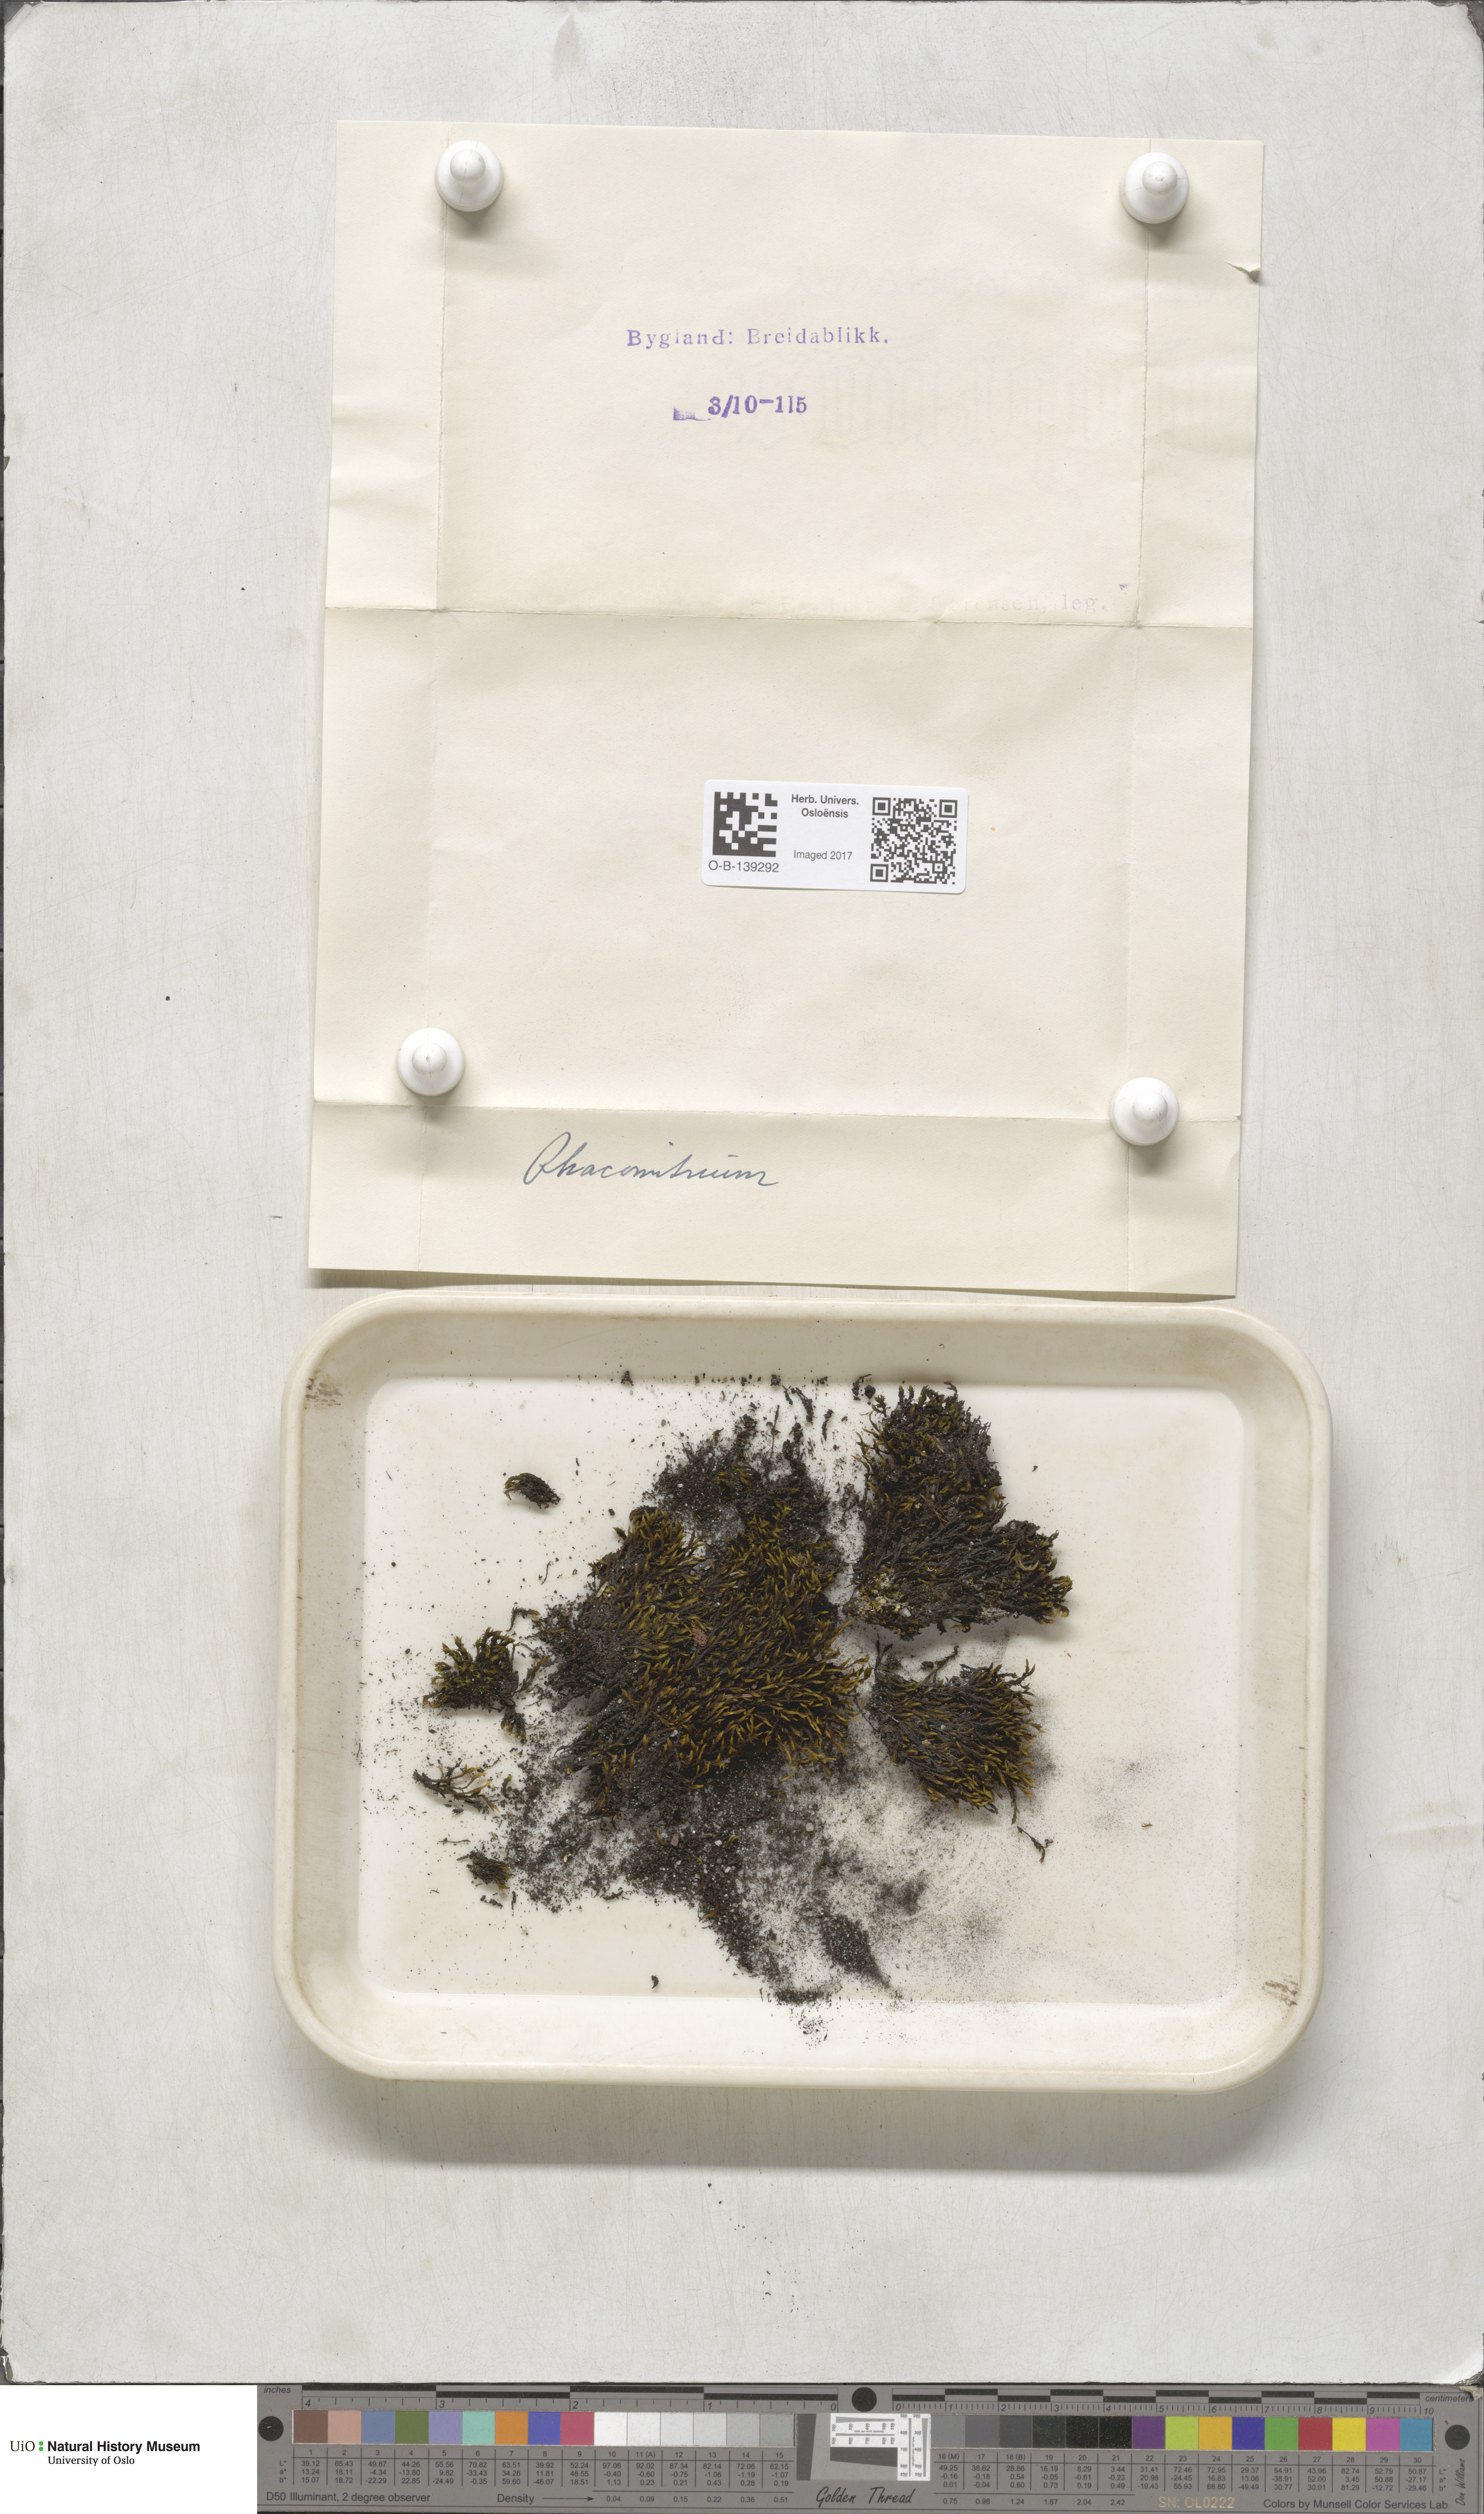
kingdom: Plantae
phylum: Bryophyta
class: Bryopsida
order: Grimmiales
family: Grimmiaceae
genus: Racomitrium
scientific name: Racomitrium
